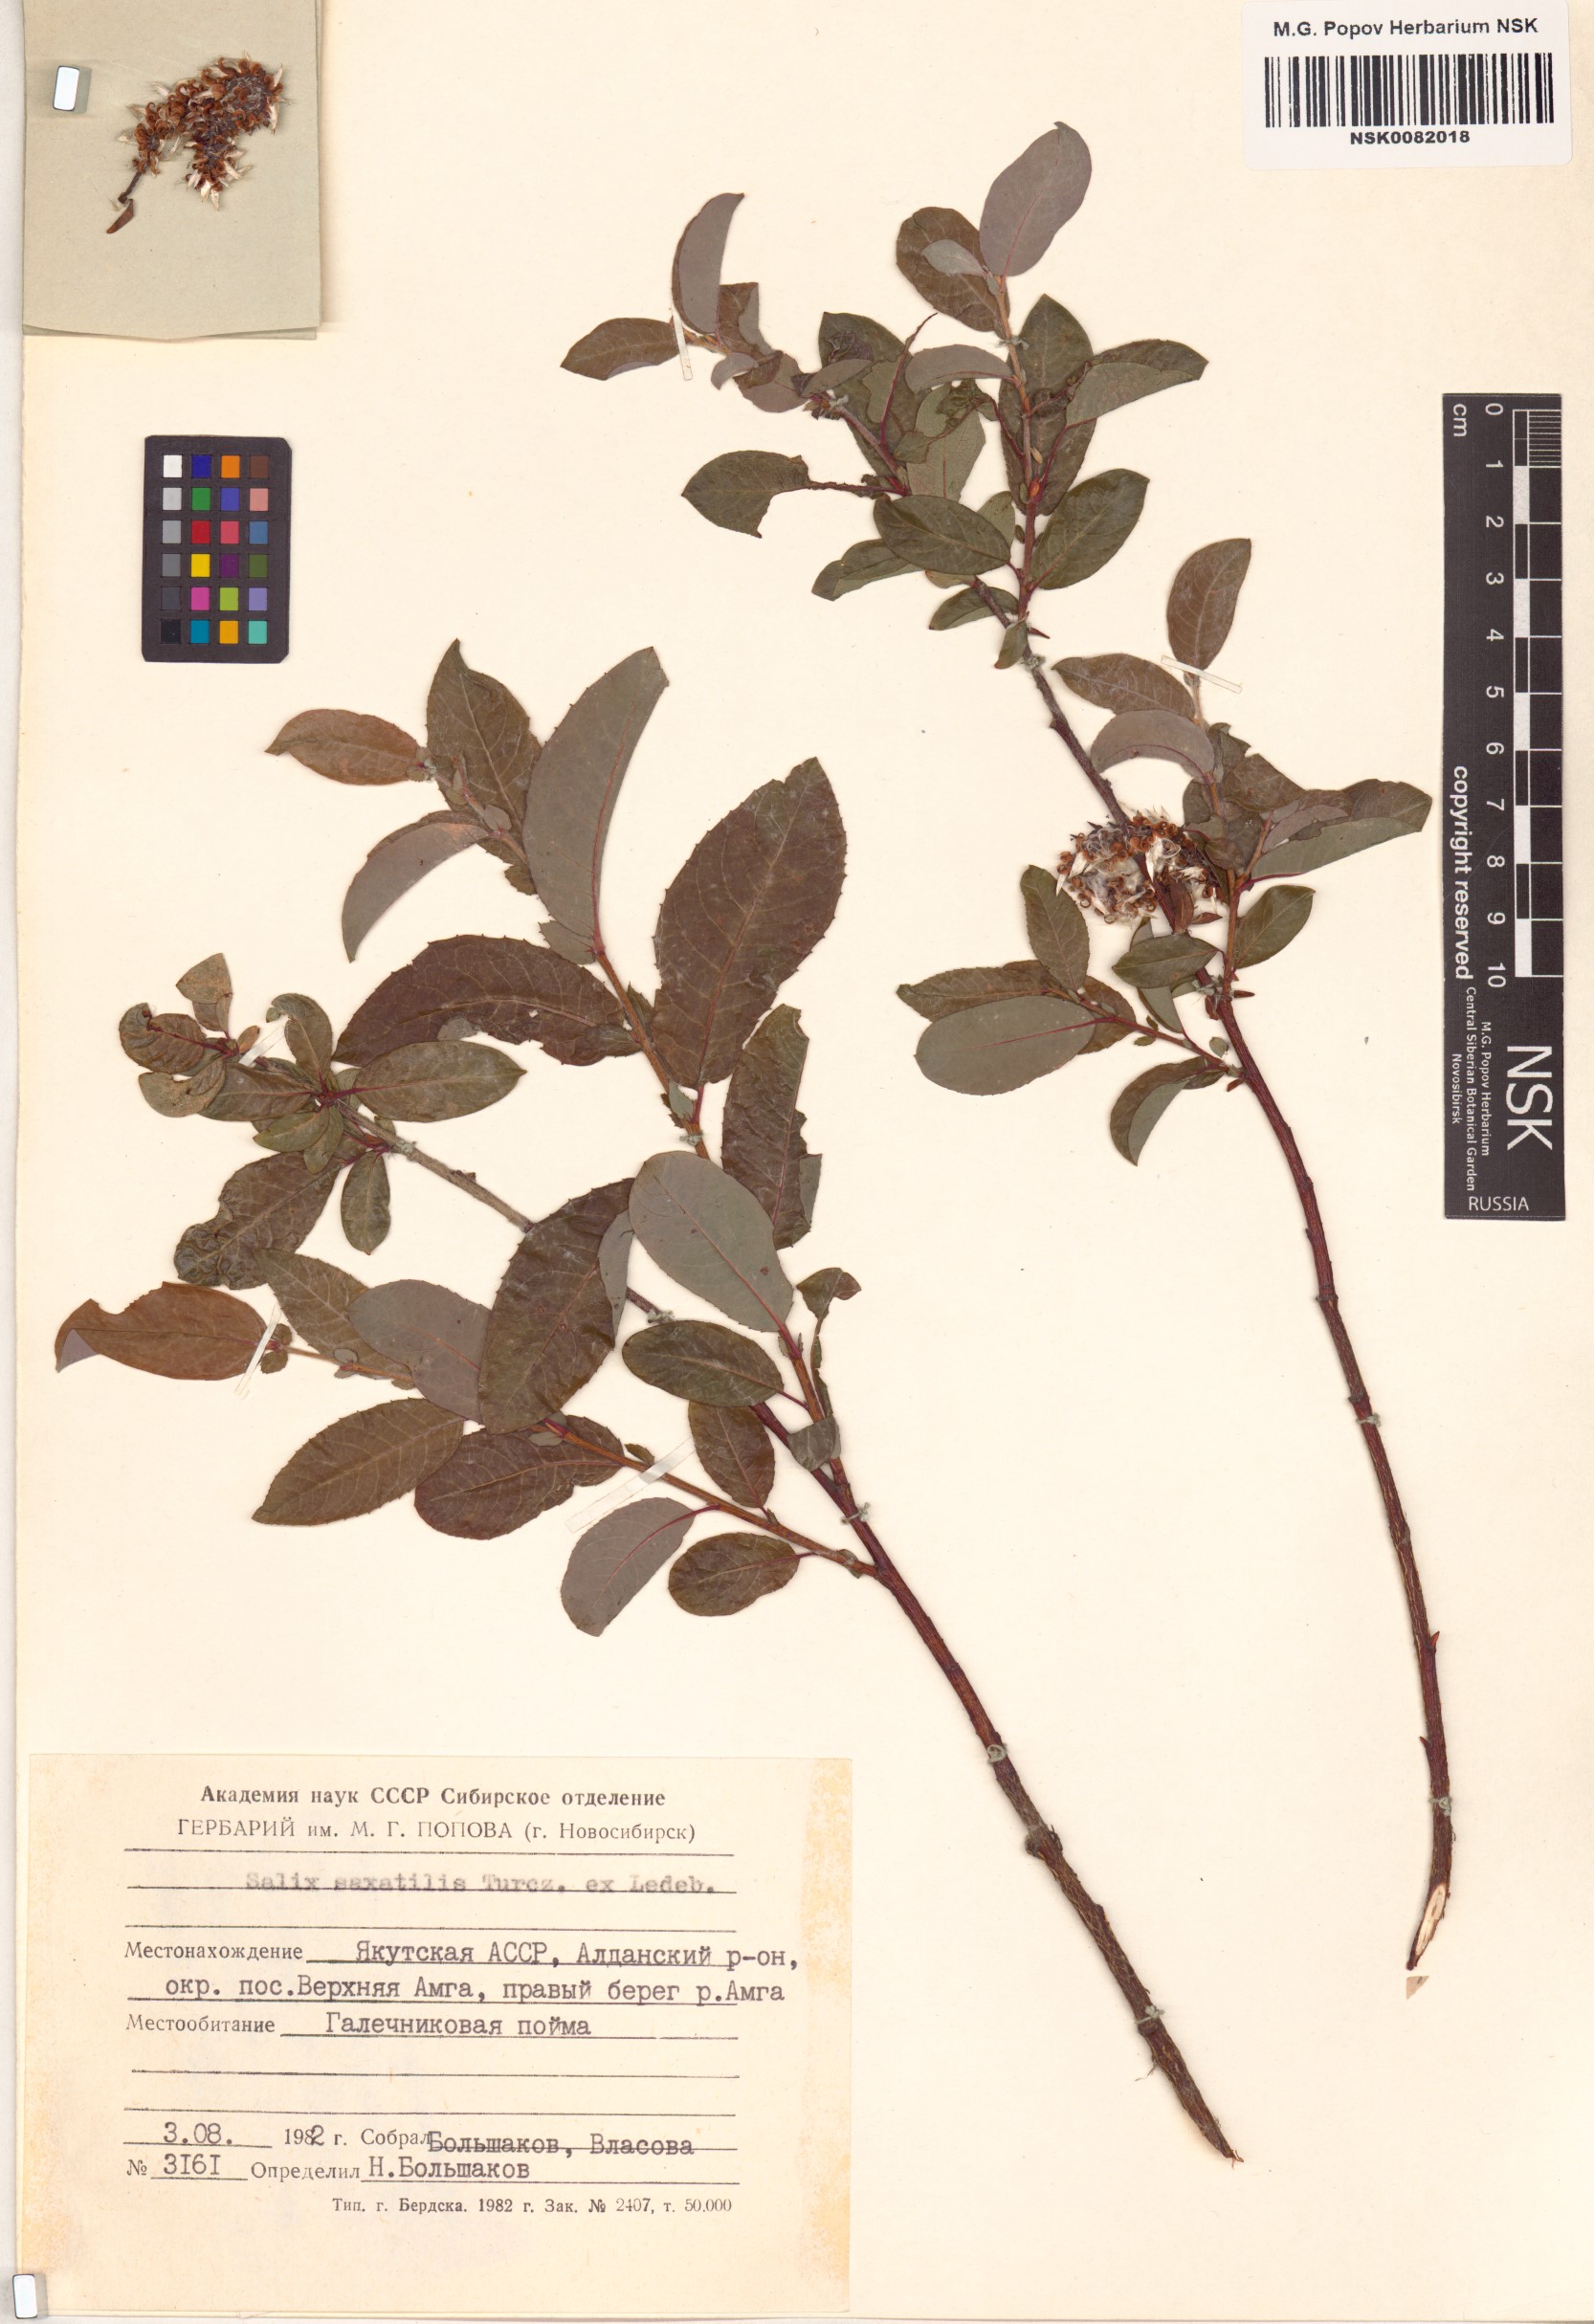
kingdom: Plantae
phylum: Tracheophyta
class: Magnoliopsida
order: Malpighiales
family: Salicaceae
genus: Salix
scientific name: Salix saxatilis
